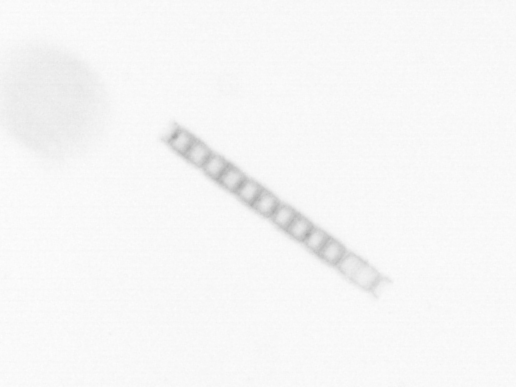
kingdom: Chromista
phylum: Ochrophyta
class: Bacillariophyceae
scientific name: Bacillariophyceae
